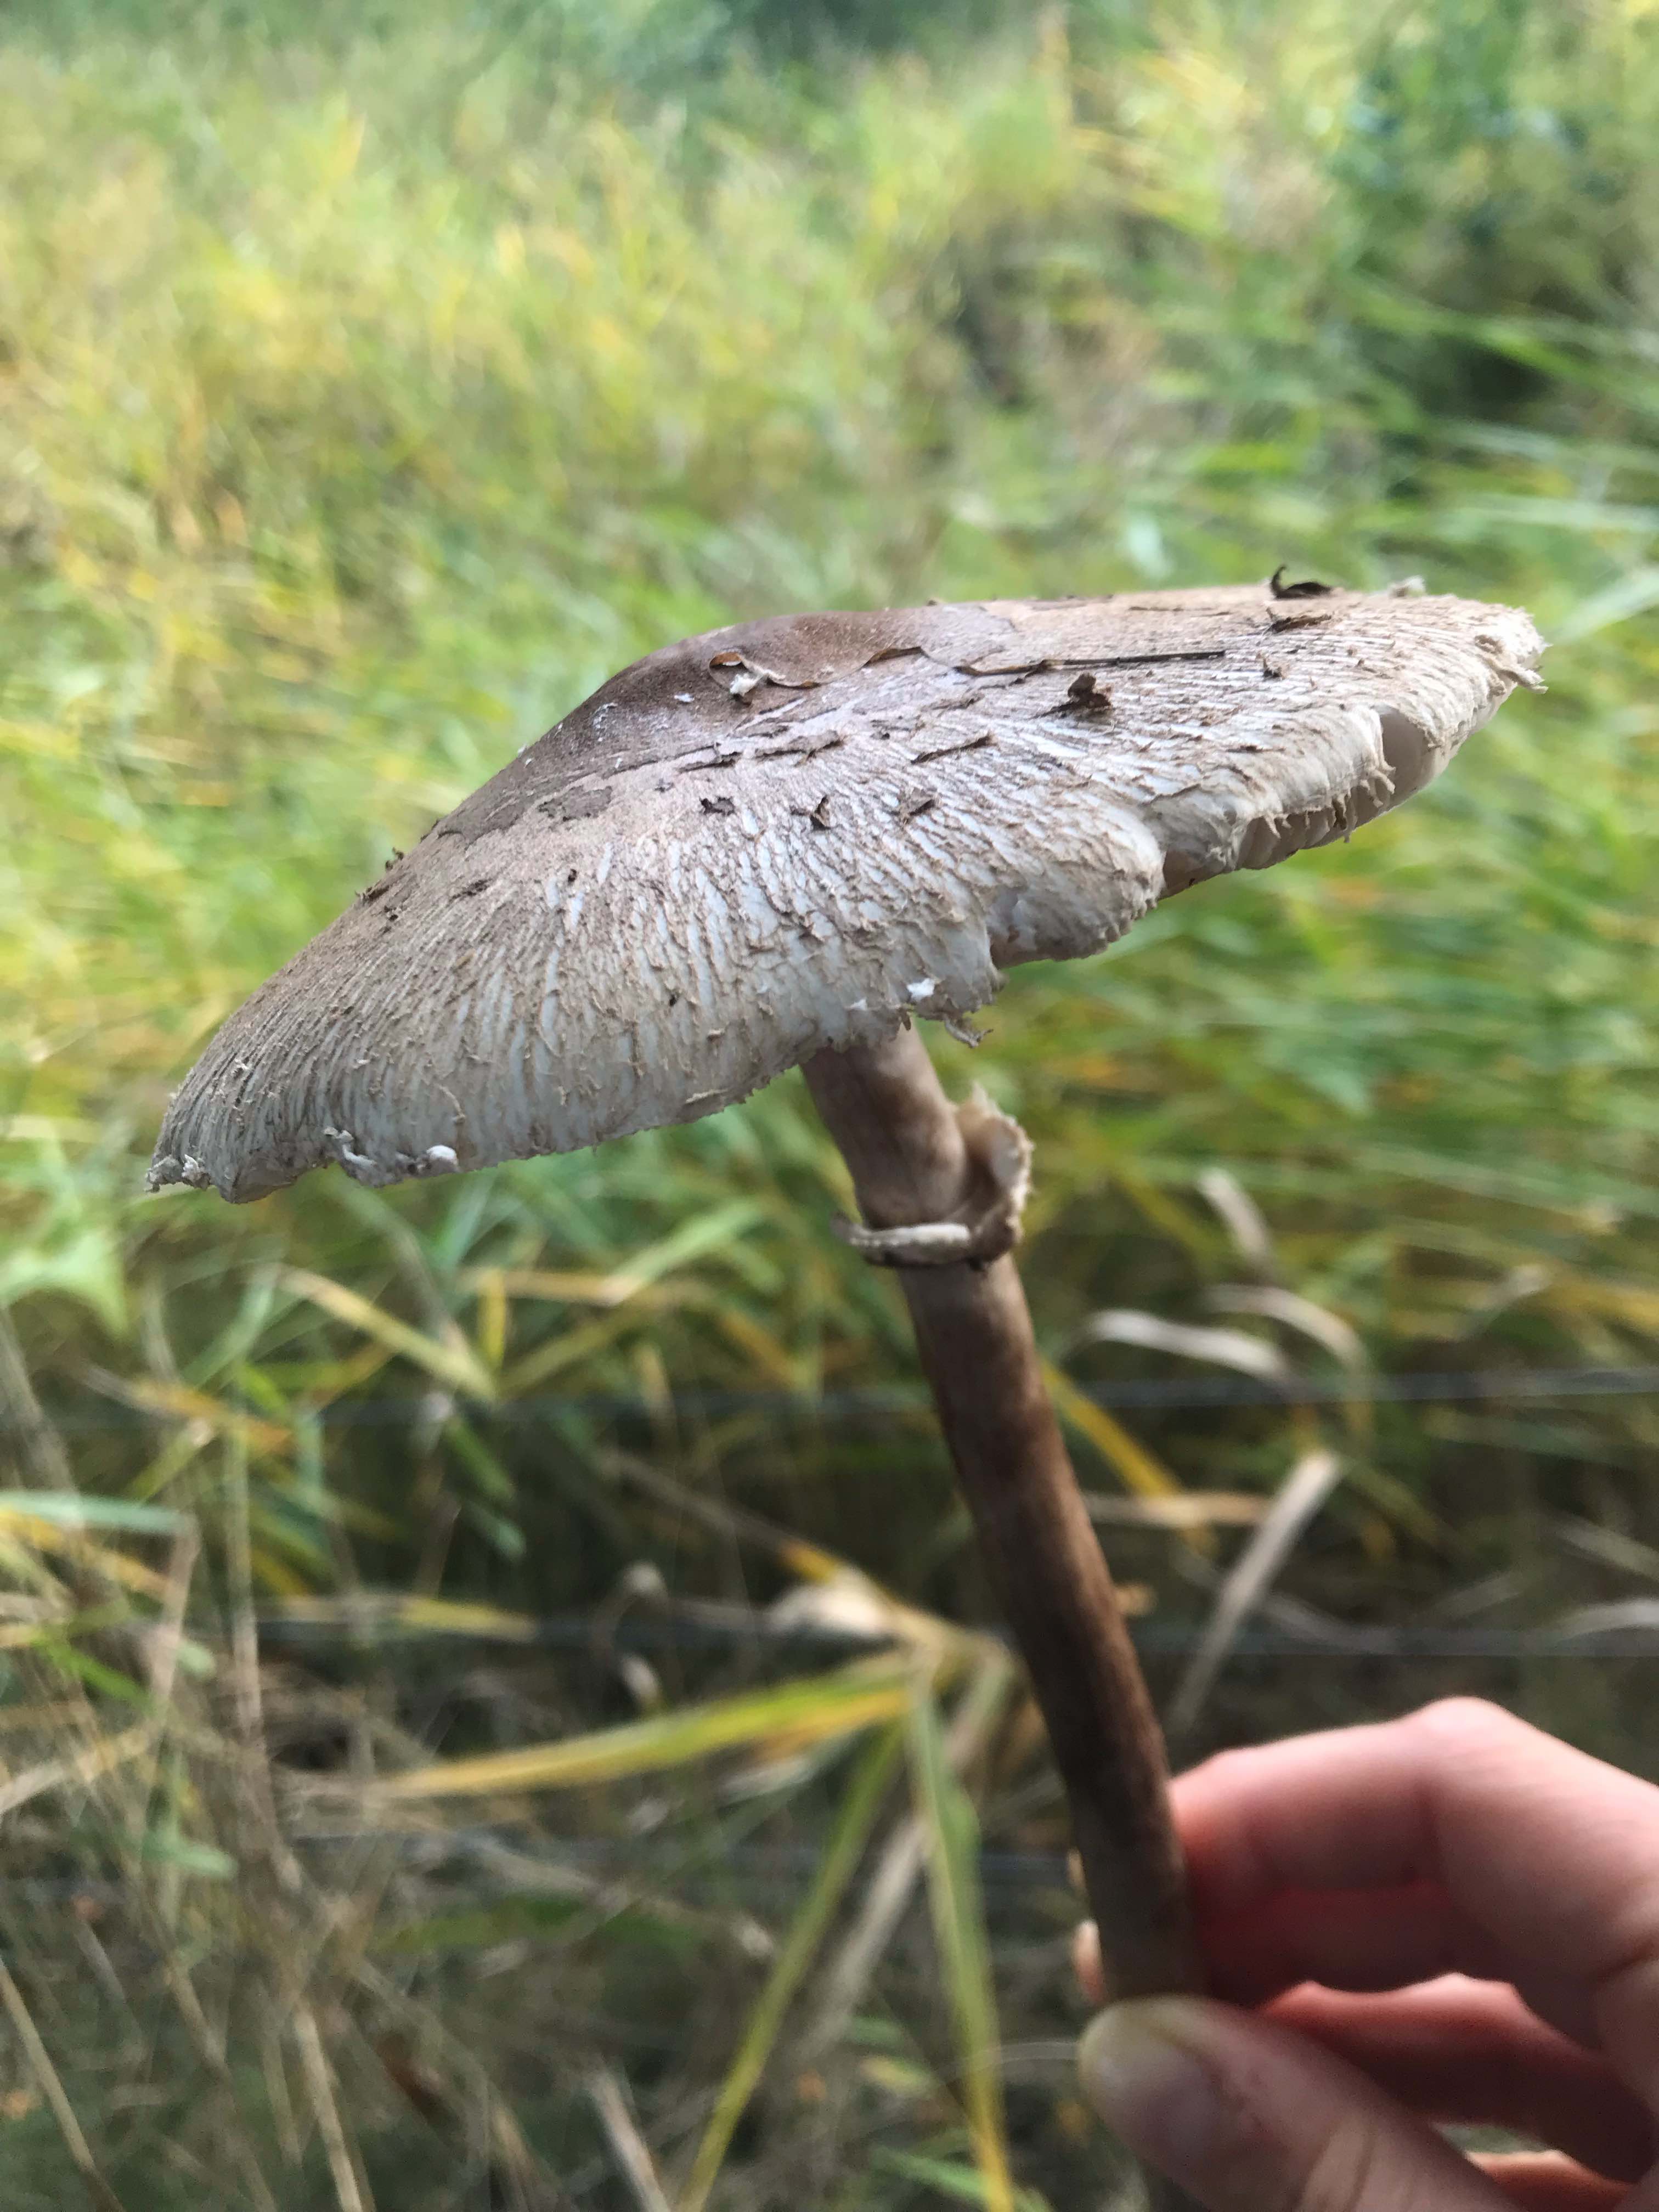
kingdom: Fungi
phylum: Basidiomycota
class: Agaricomycetes
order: Agaricales
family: Agaricaceae
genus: Macrolepiota
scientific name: Macrolepiota
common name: kæmpeparasolhat
